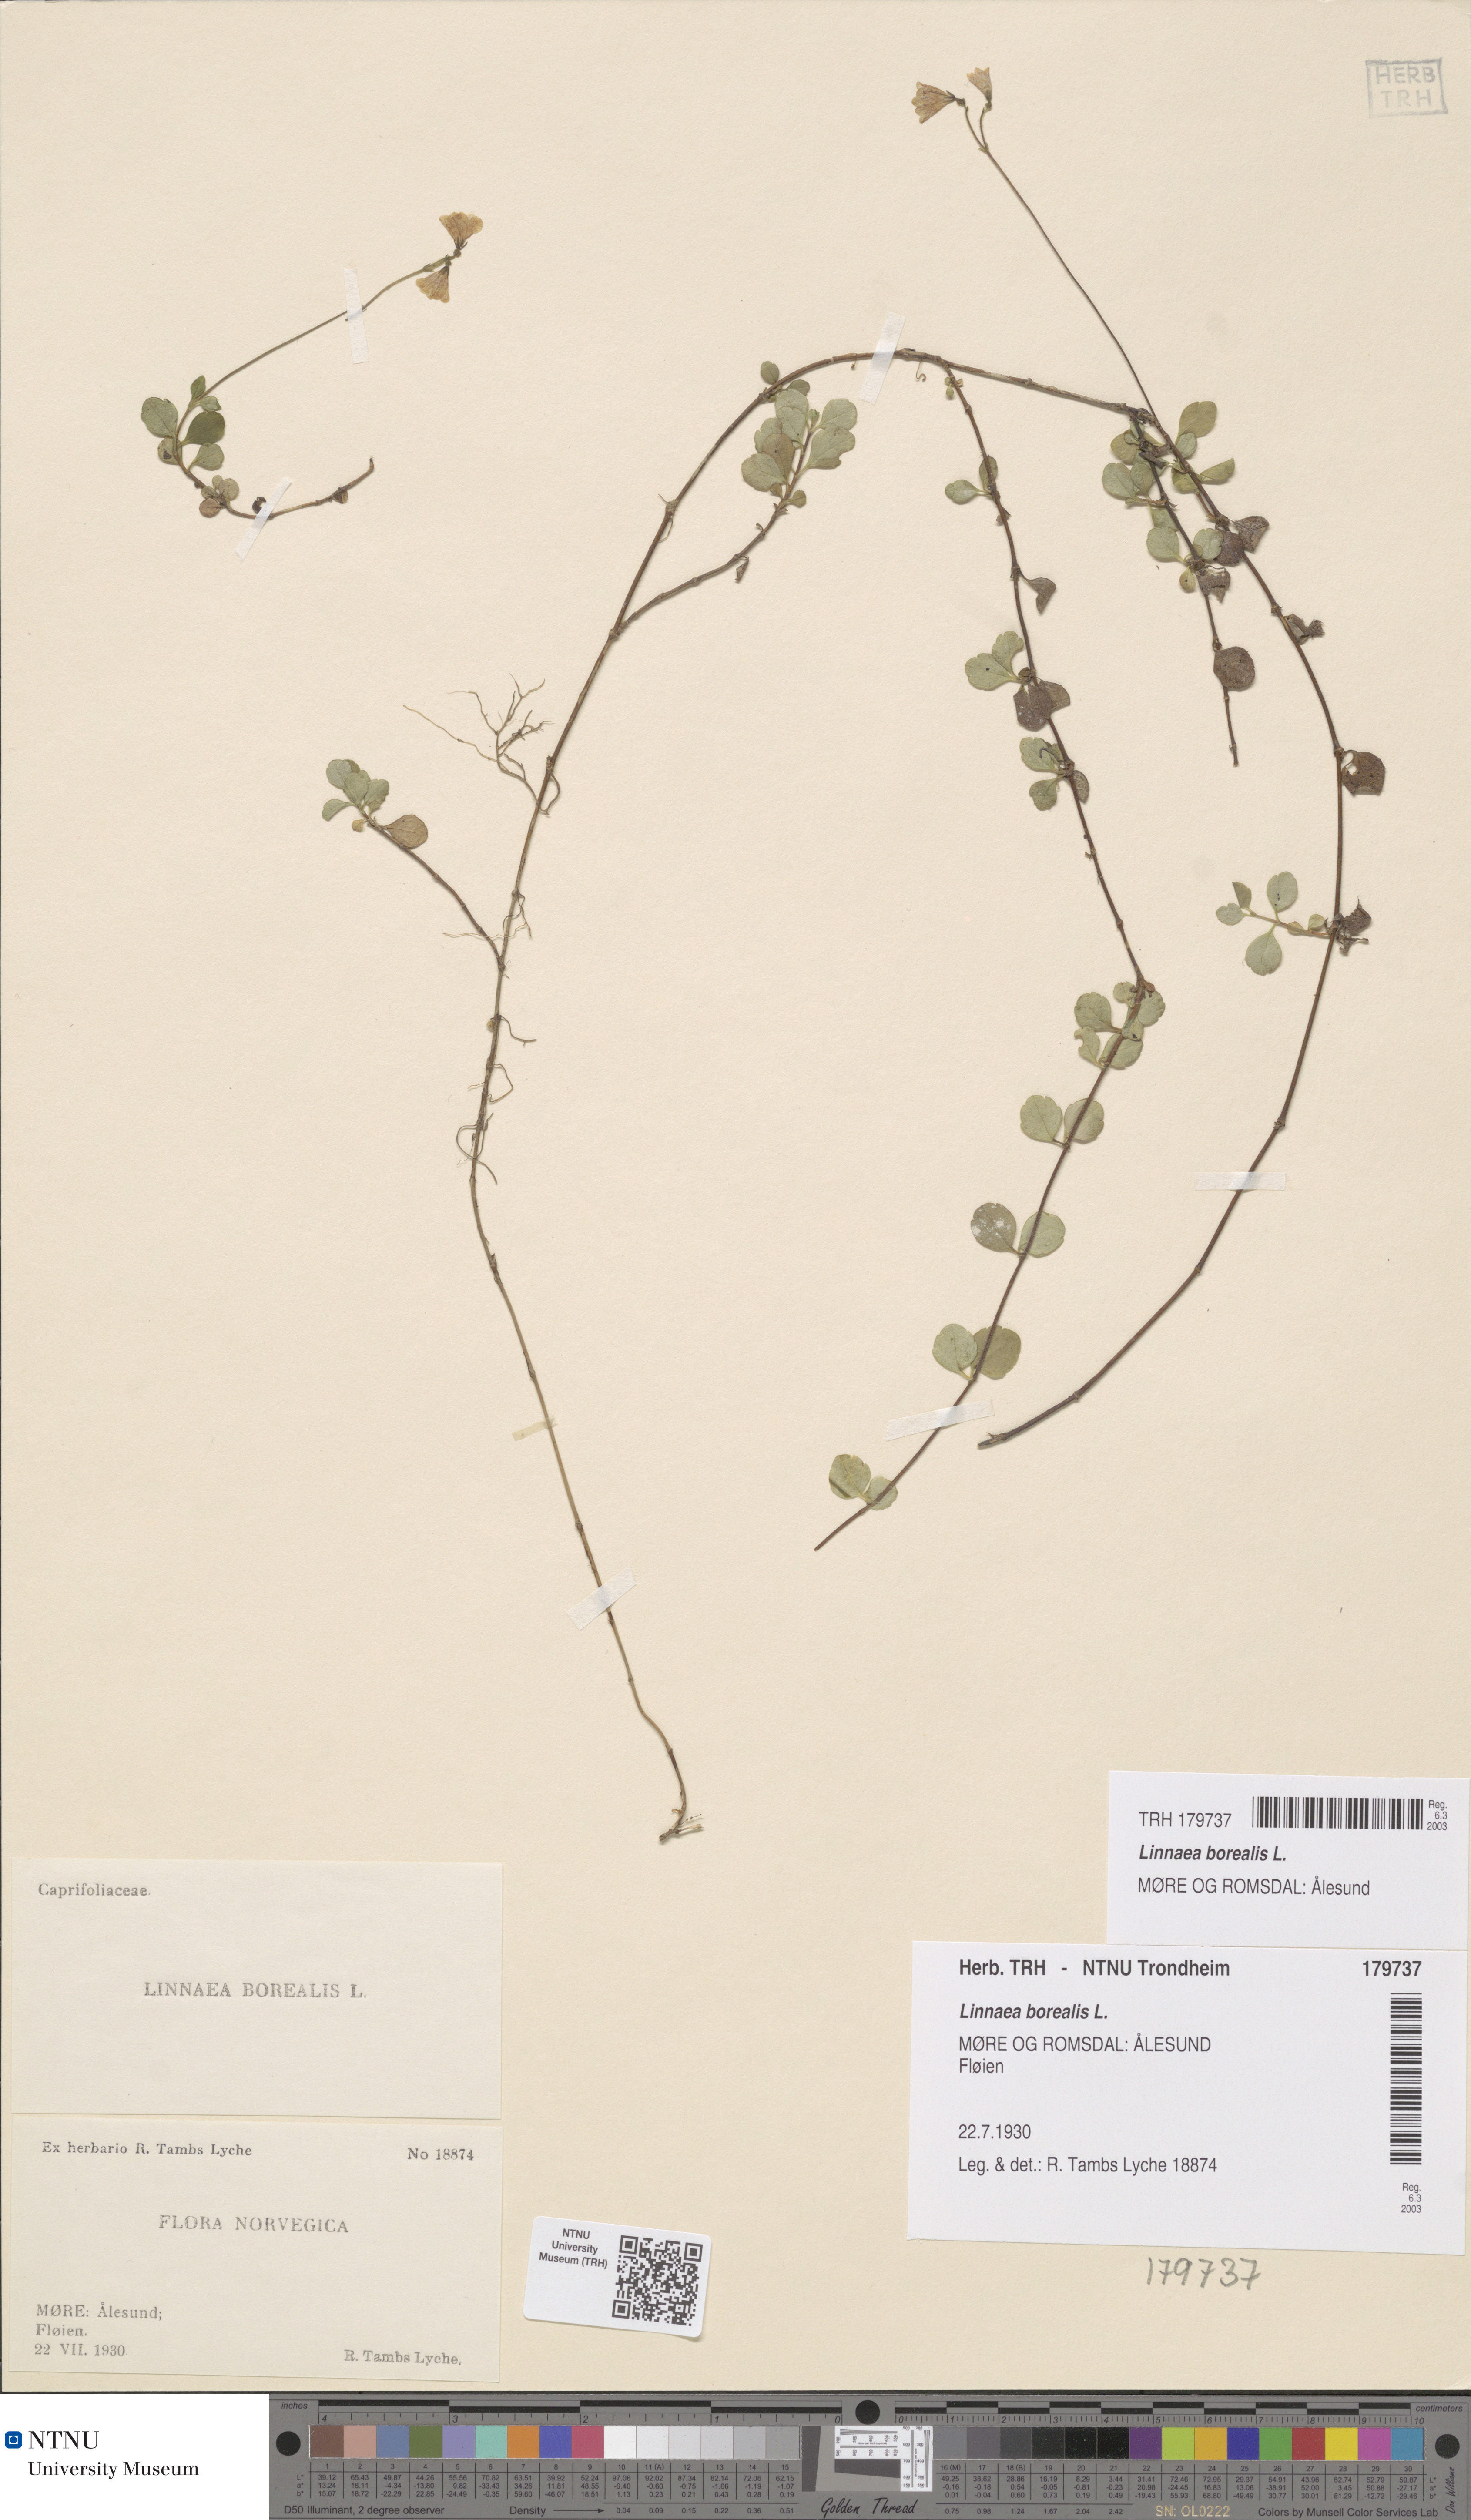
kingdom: Plantae
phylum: Tracheophyta
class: Magnoliopsida
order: Dipsacales
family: Caprifoliaceae
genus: Linnaea
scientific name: Linnaea borealis
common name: Twinflower
